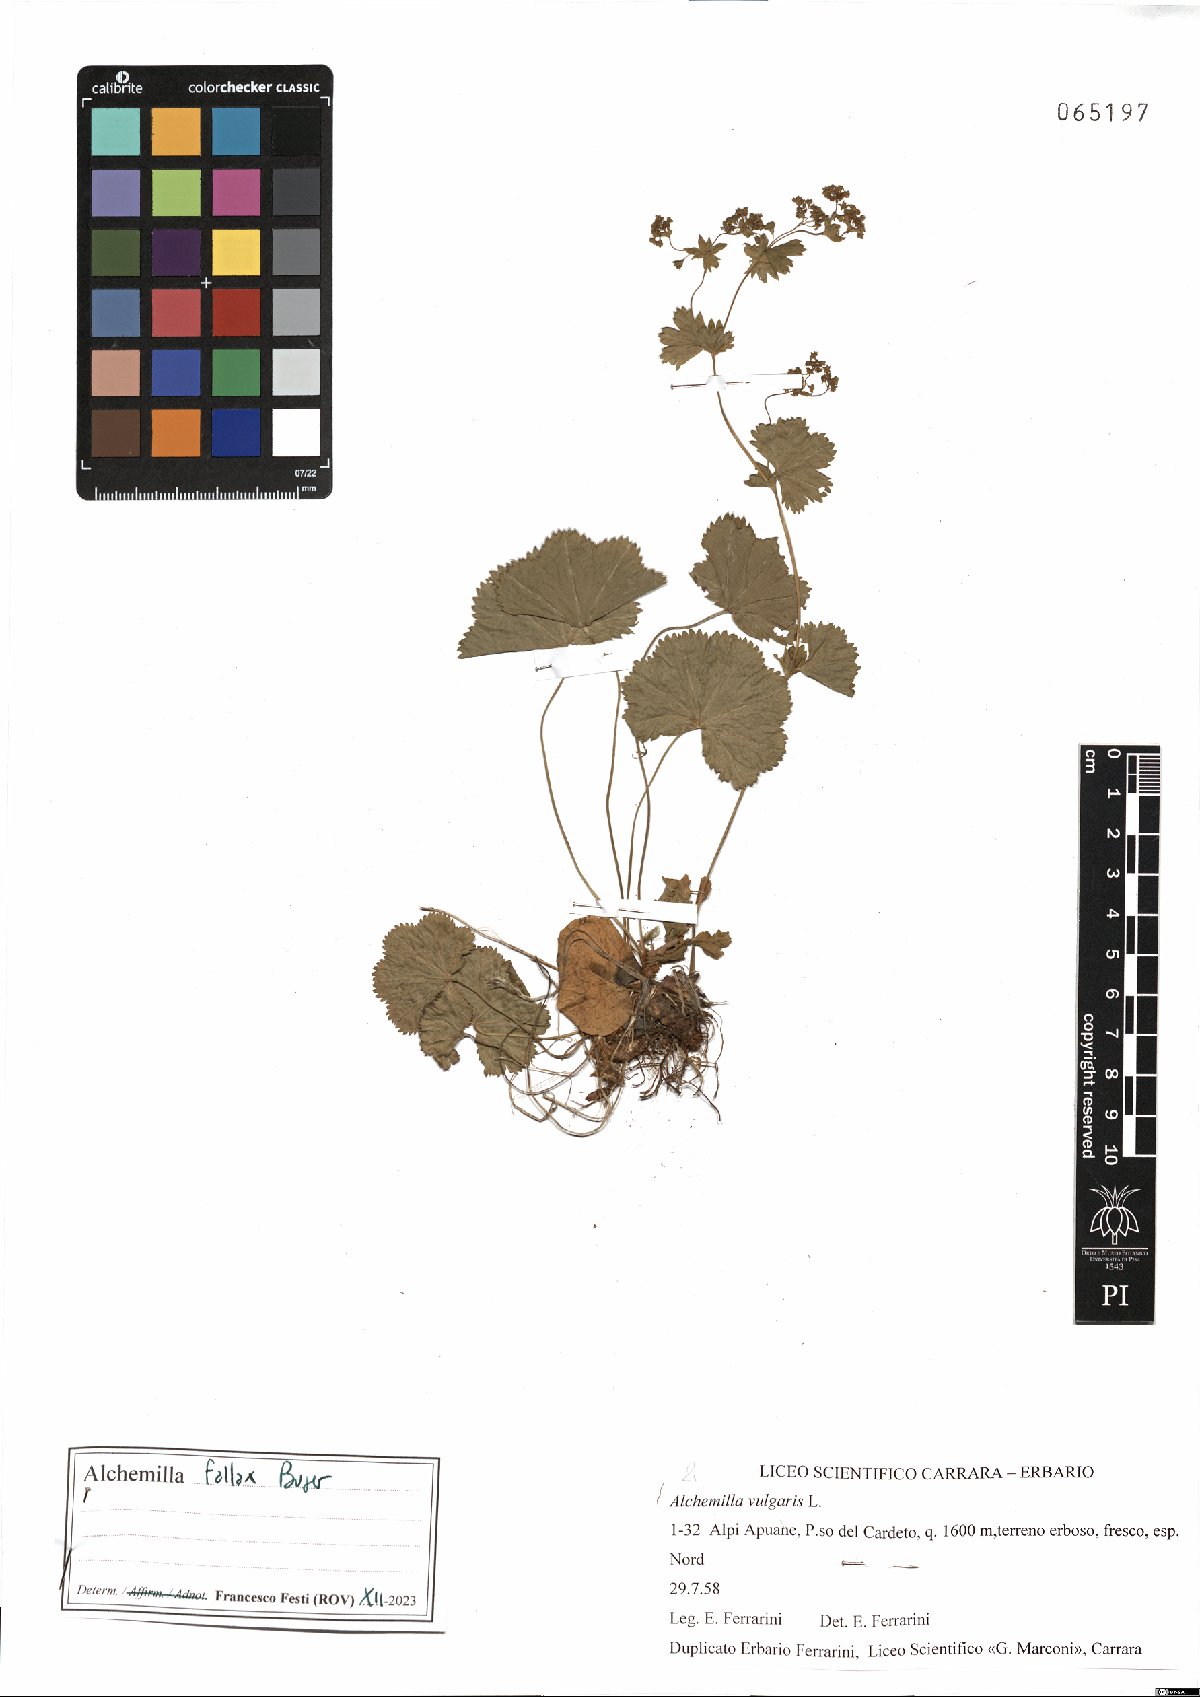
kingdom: Plantae
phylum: Tracheophyta
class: Magnoliopsida
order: Rosales
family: Rosaceae
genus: Alchemilla
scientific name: Alchemilla fallax
